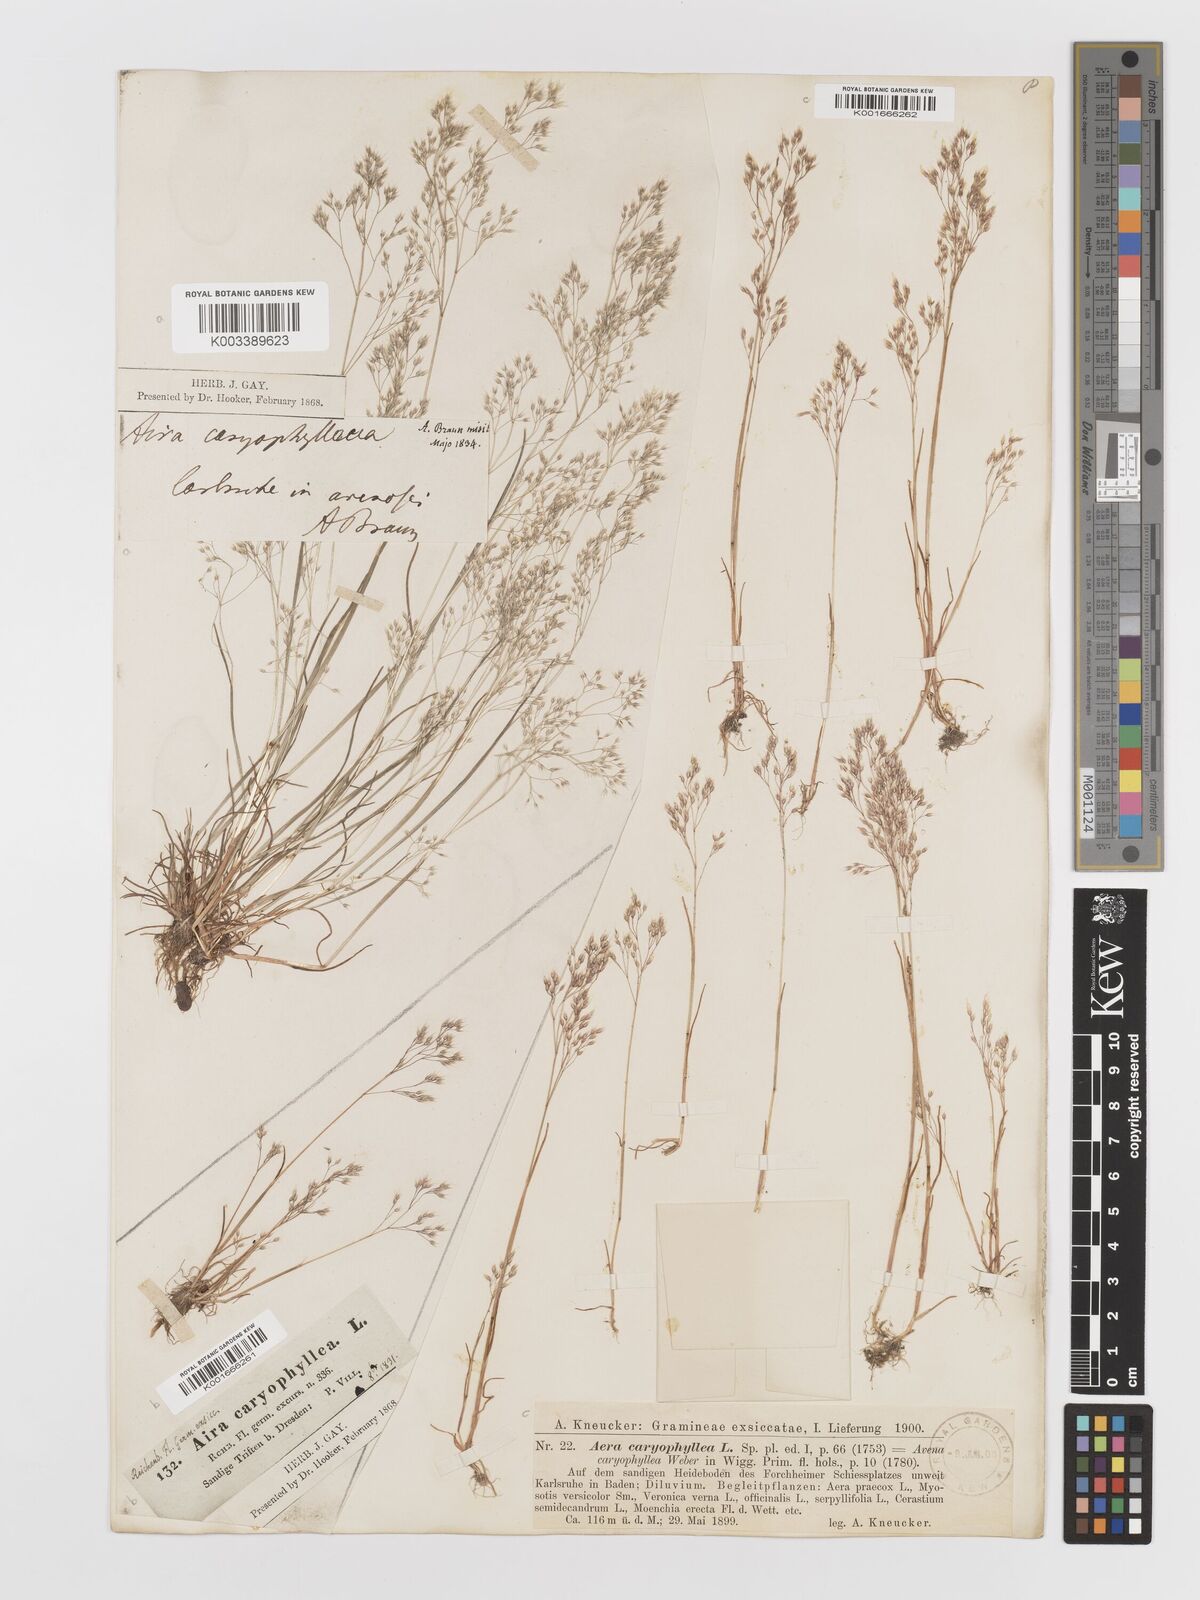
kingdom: Plantae
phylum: Tracheophyta
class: Liliopsida
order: Poales
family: Poaceae
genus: Aira
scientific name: Aira caryophyllea
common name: Silver hairgrass
